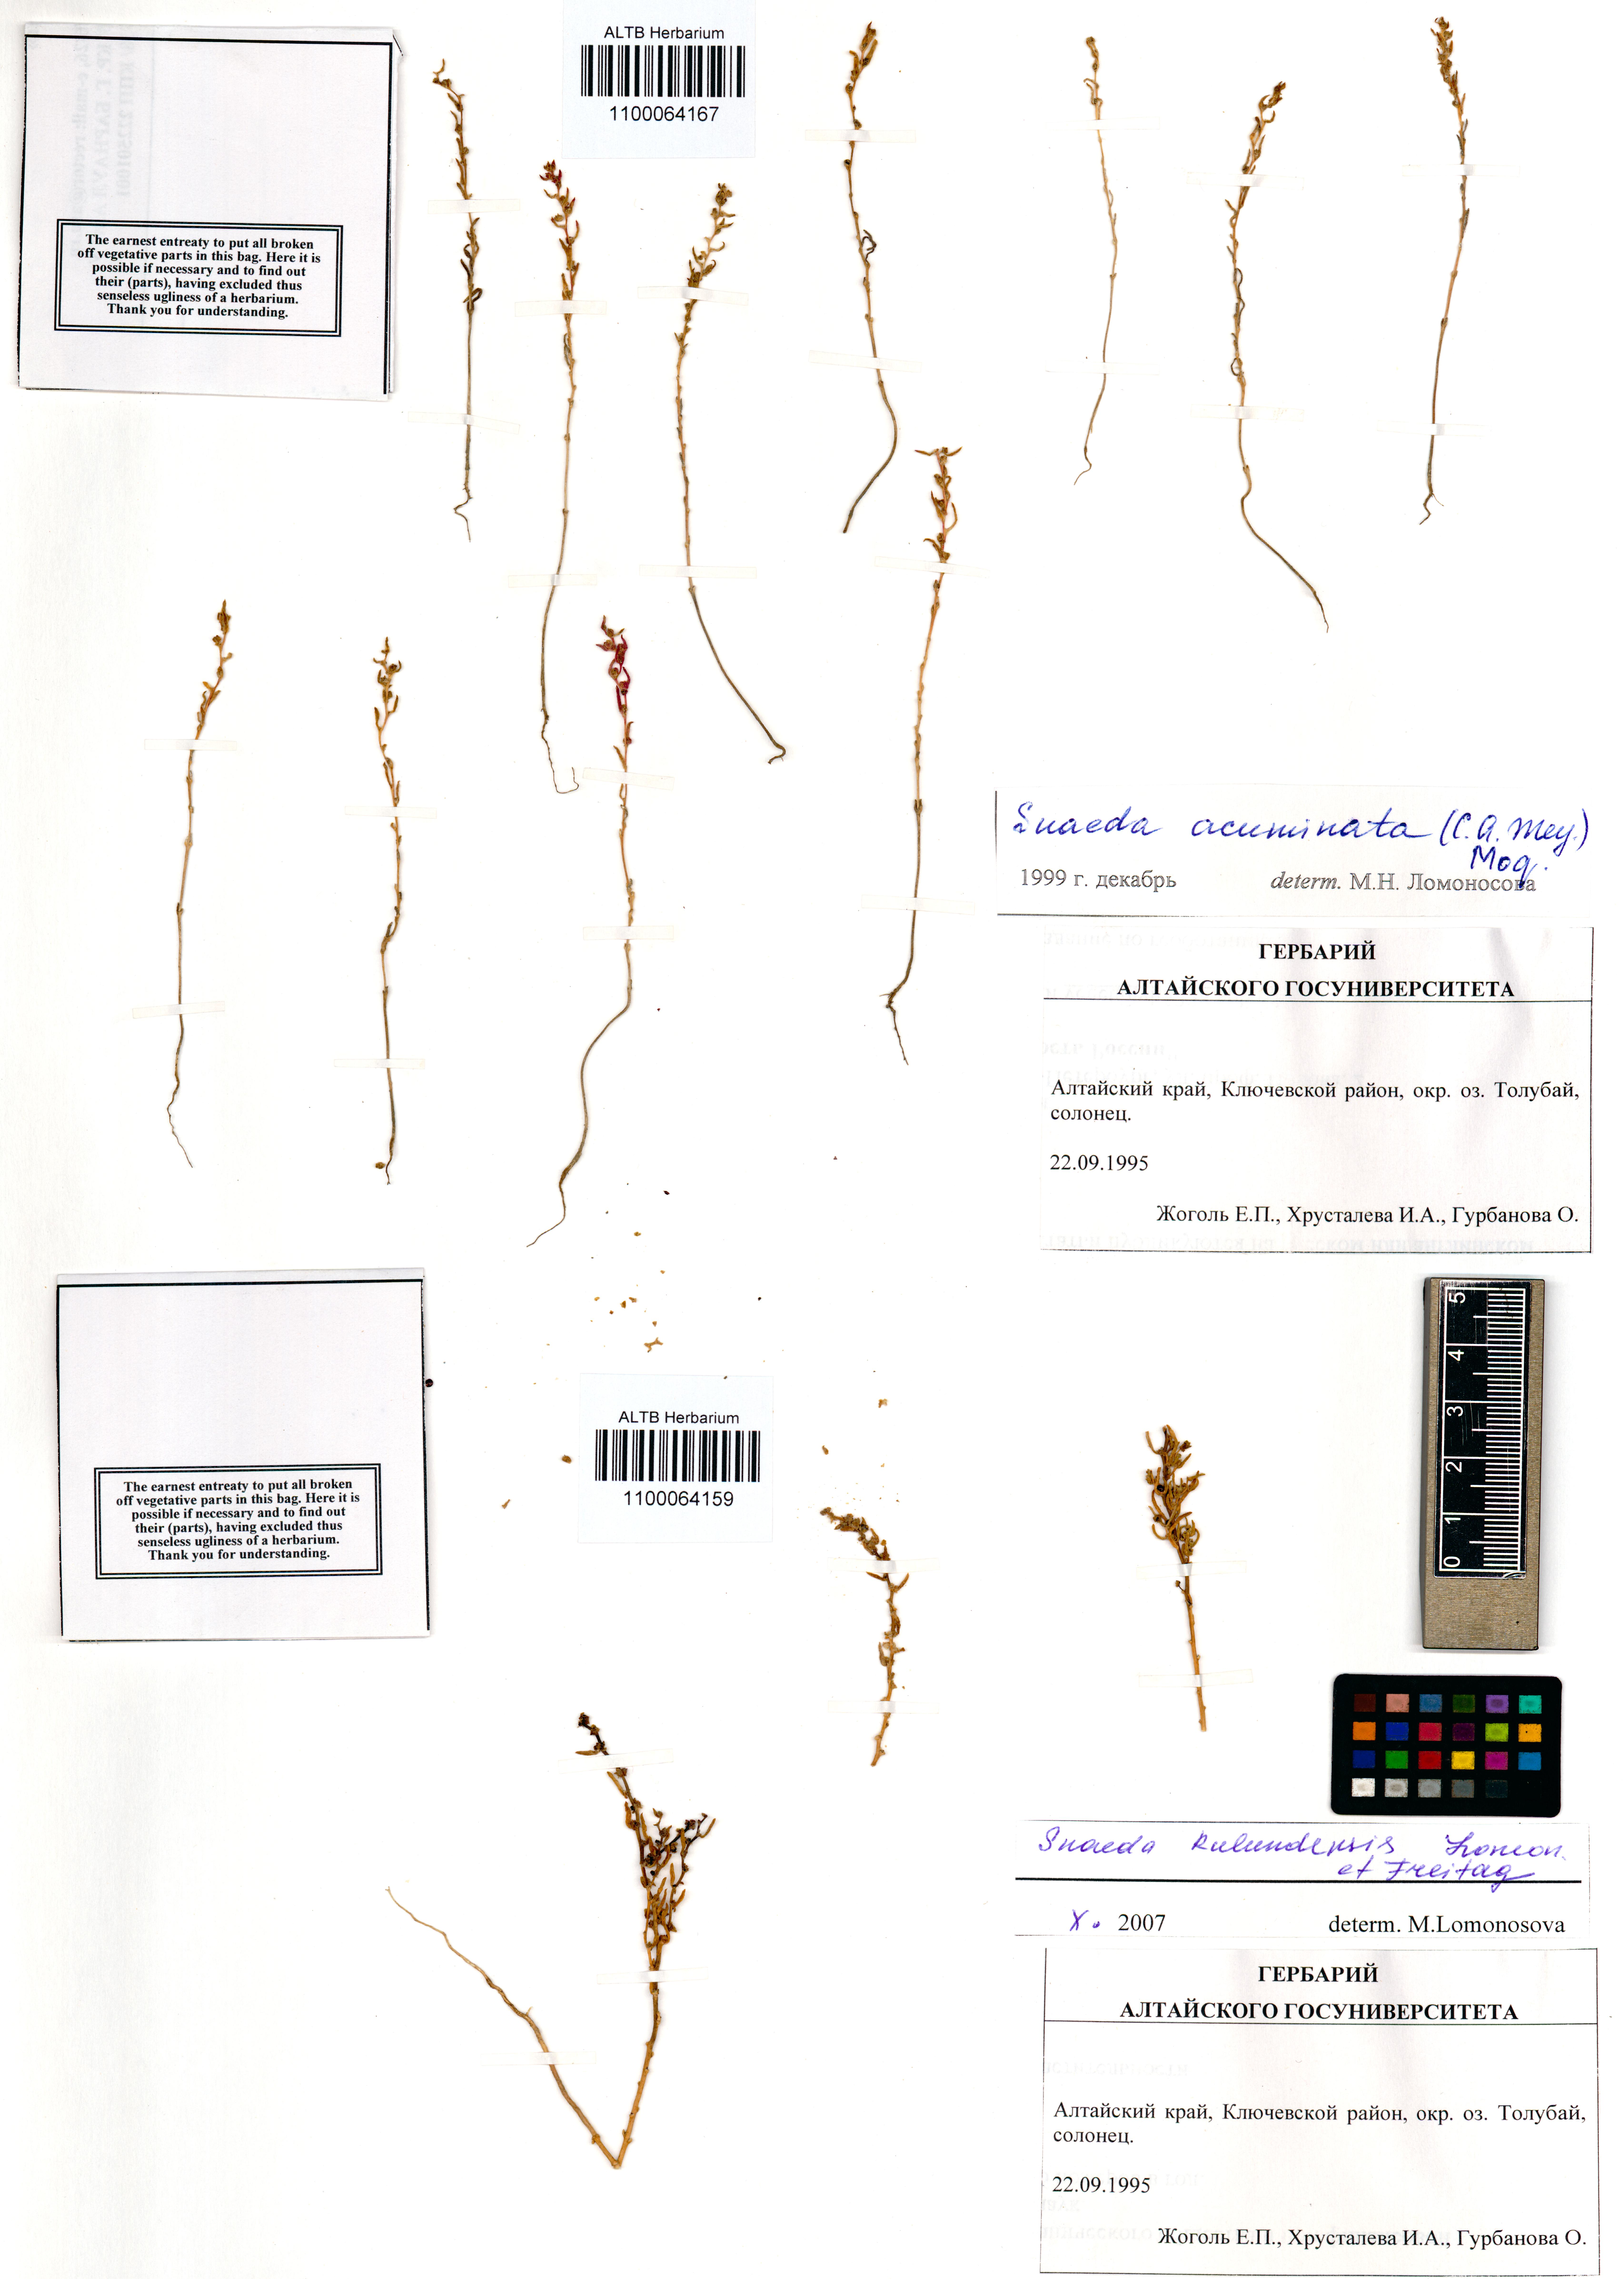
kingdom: Plantae
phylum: Tracheophyta
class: Magnoliopsida
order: Caryophyllales
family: Amaranthaceae
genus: Suaeda
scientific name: Suaeda acuminata
